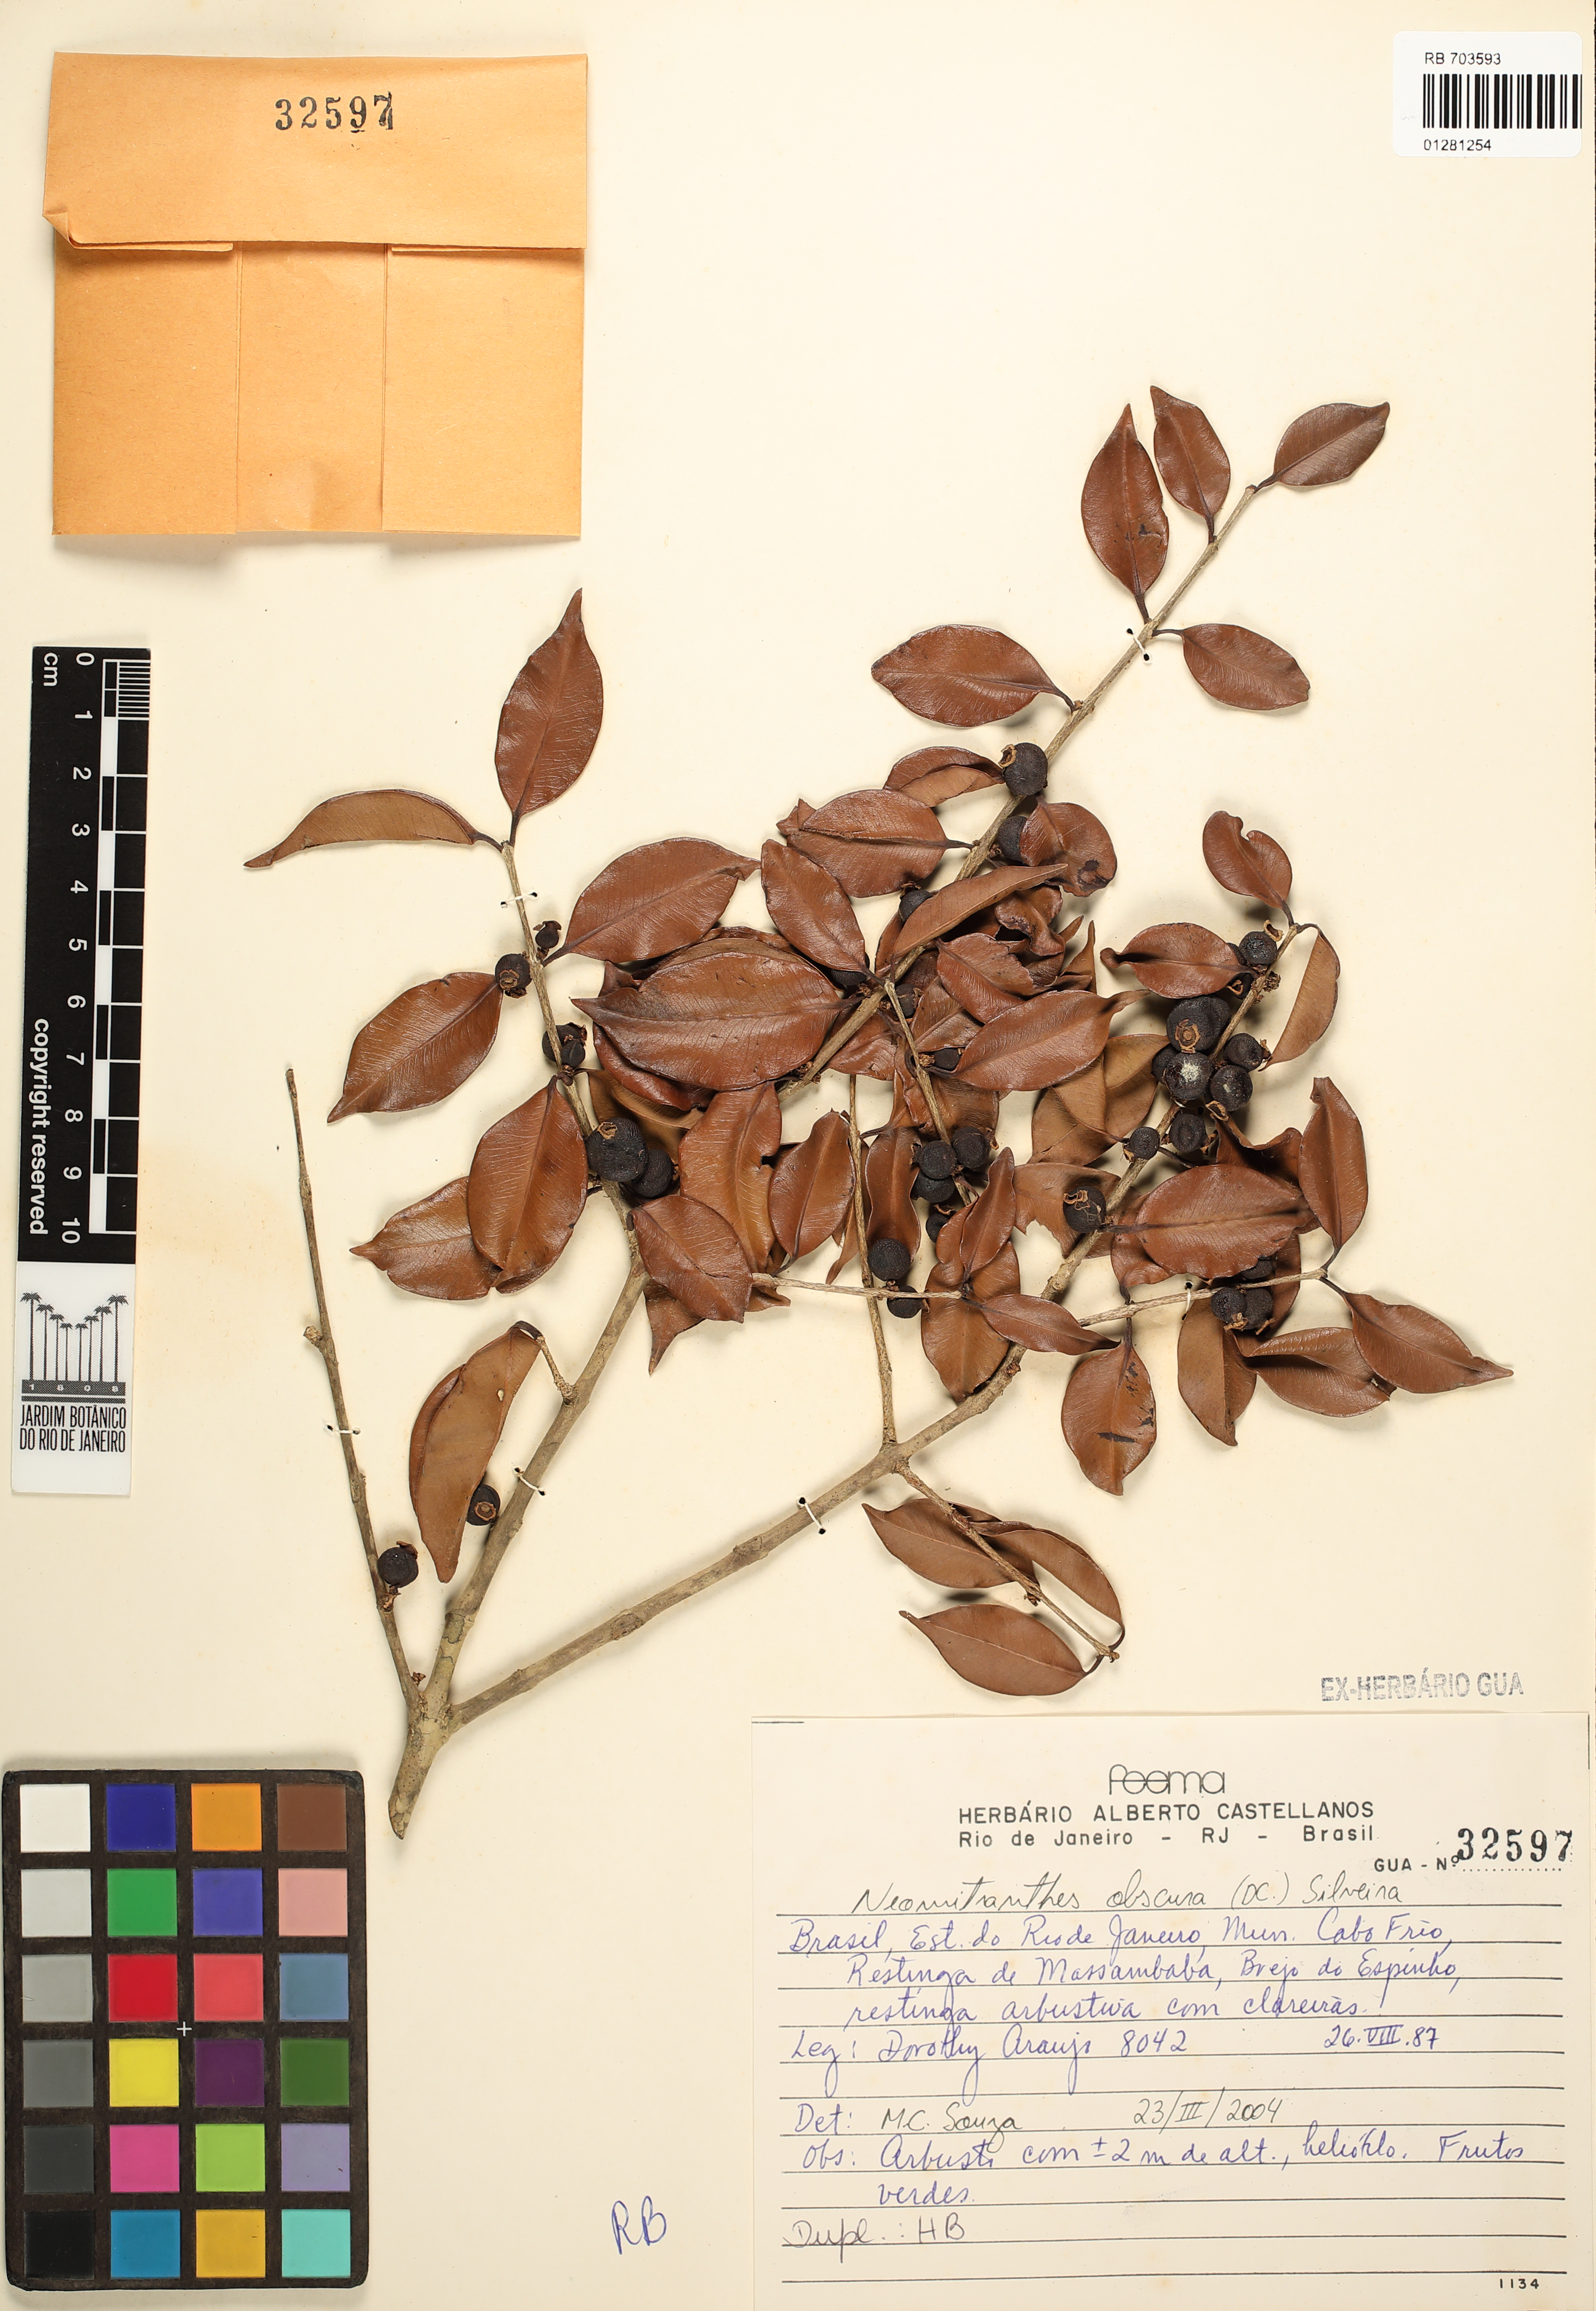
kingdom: Plantae
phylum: Tracheophyta
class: Magnoliopsida
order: Myrtales
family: Myrtaceae
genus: Neomitranthes
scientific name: Neomitranthes obscura
